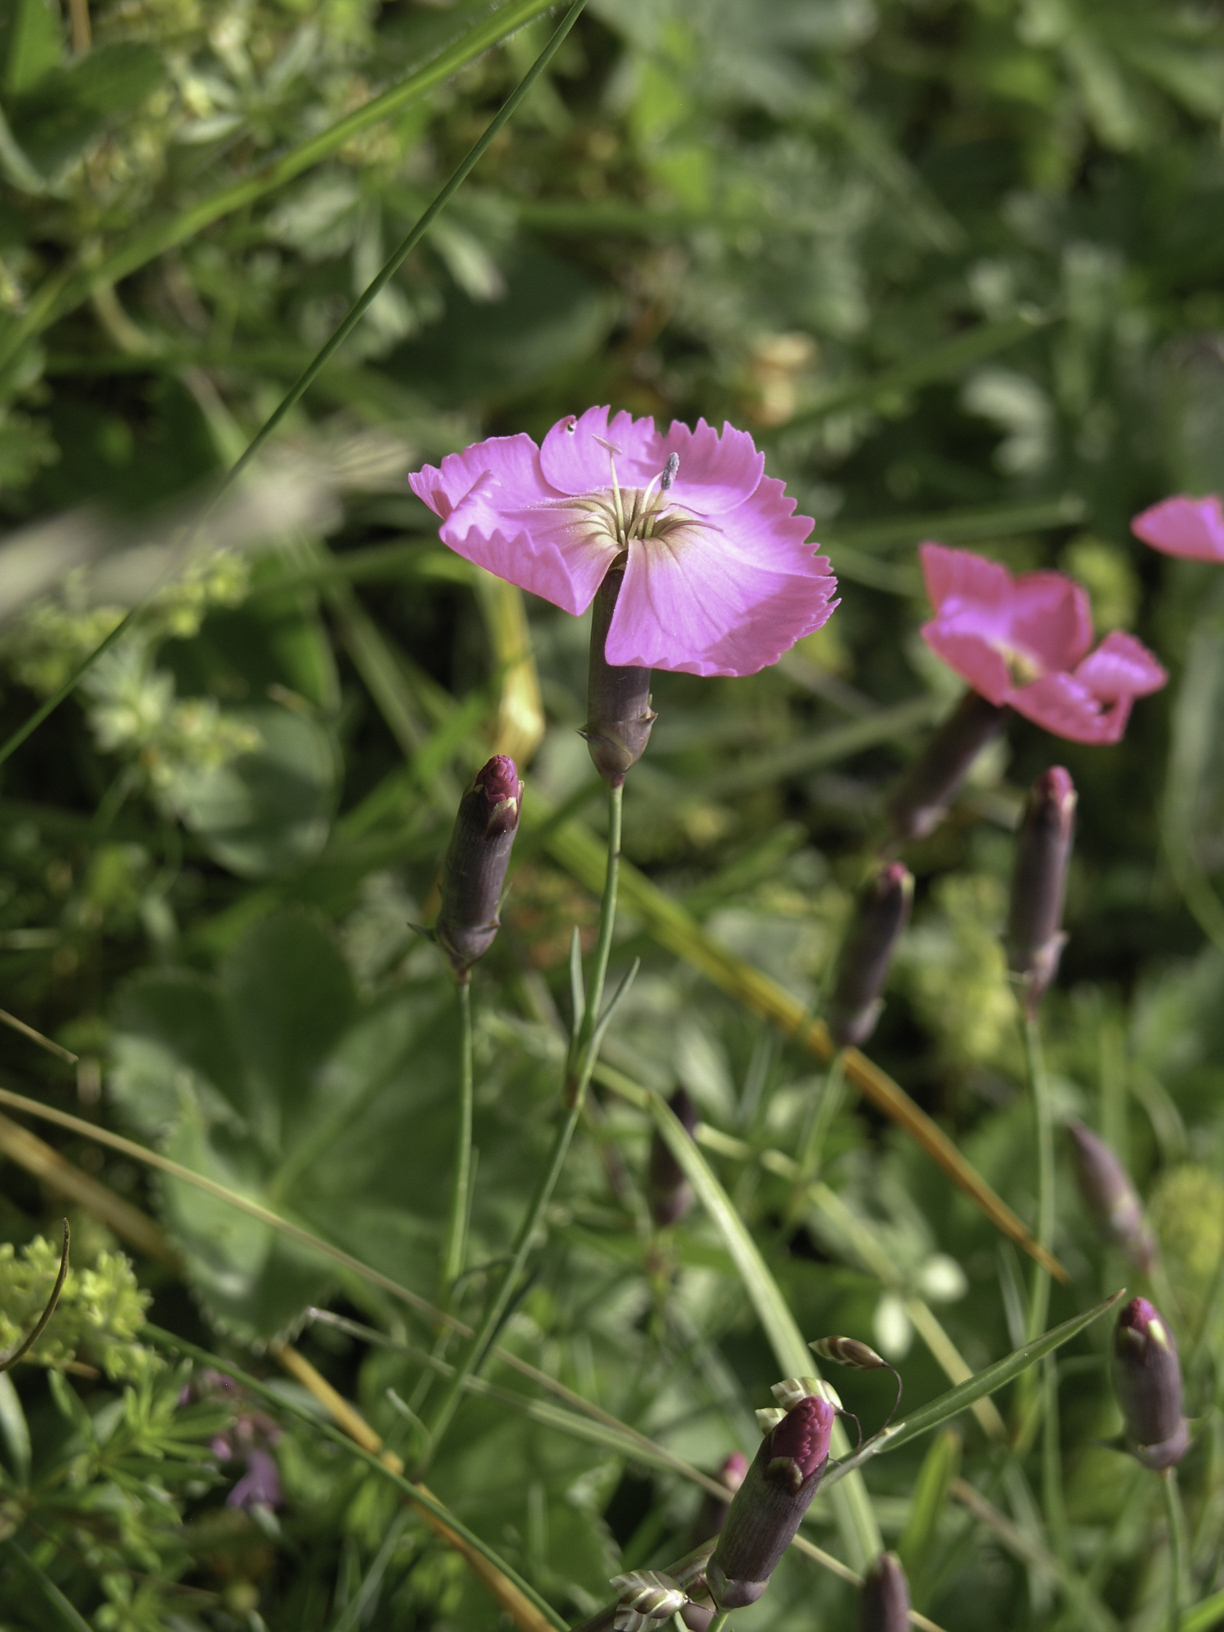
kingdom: Plantae
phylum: Tracheophyta
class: Magnoliopsida
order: Caryophyllales
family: Caryophyllaceae
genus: Dianthus
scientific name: Dianthus sylvestris
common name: Wood pink
